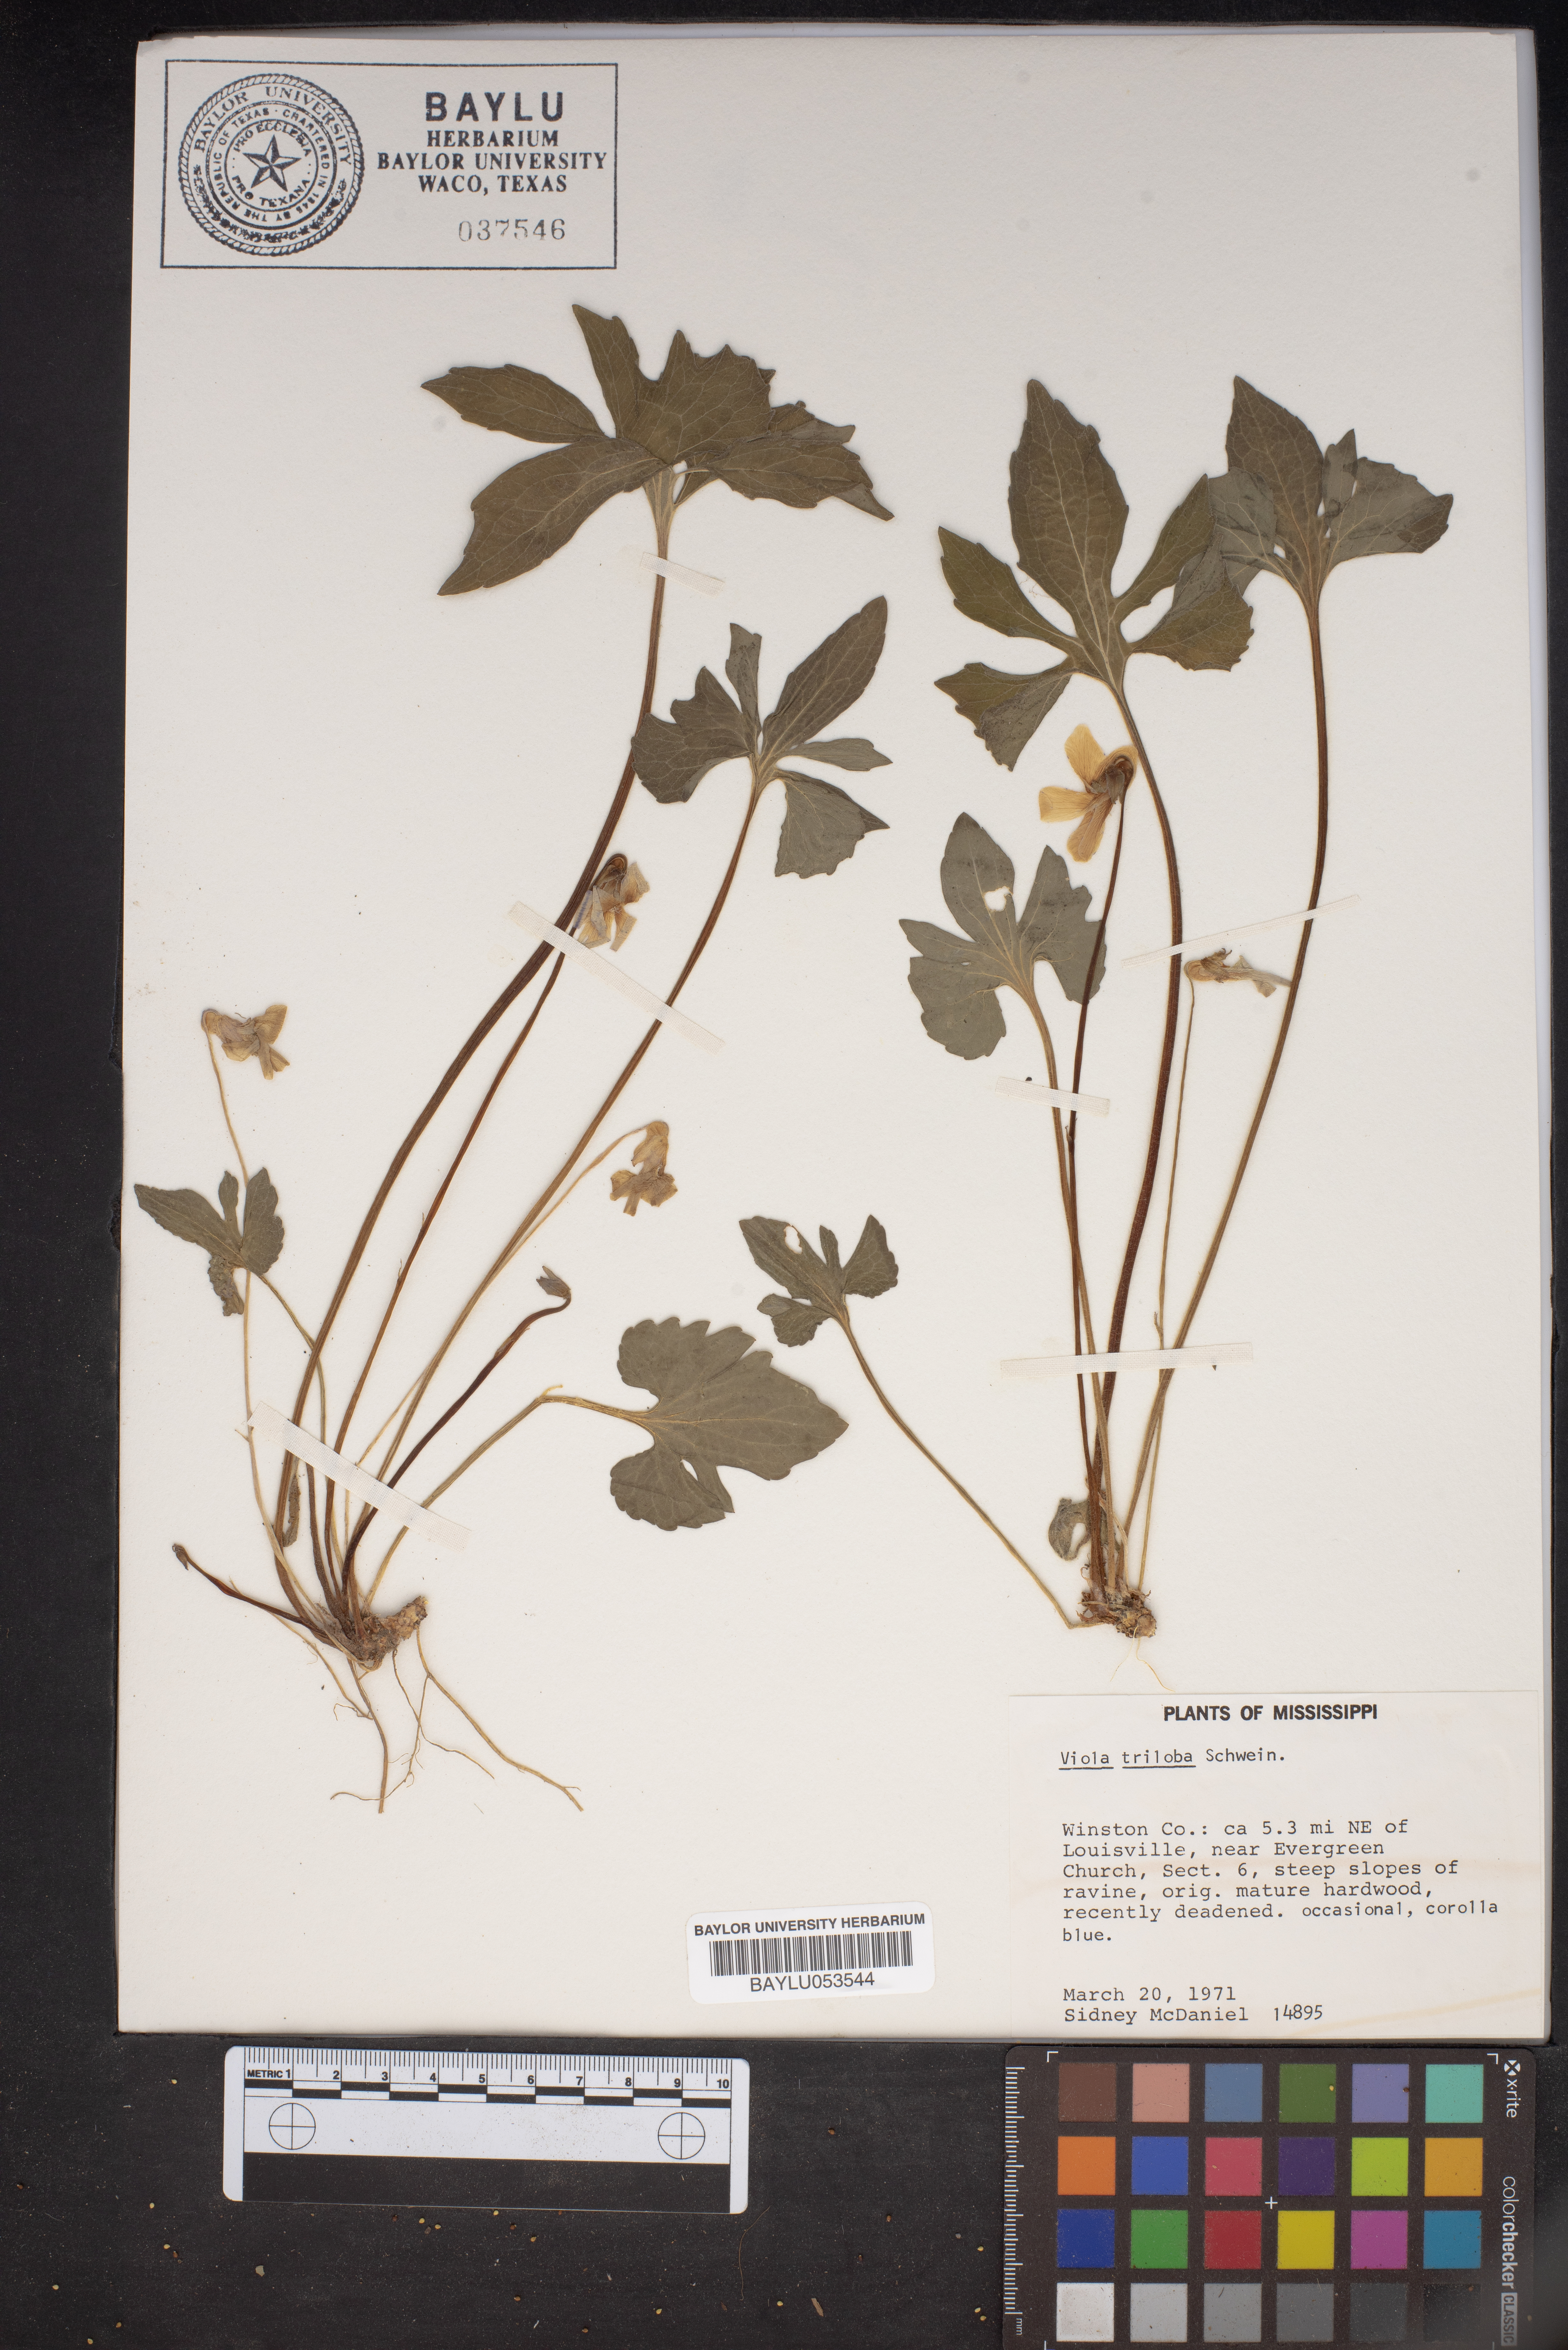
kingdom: Plantae
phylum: Tracheophyta
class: Magnoliopsida
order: Malpighiales
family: Violaceae
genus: Viola
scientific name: Viola palmata
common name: Early blue violet
